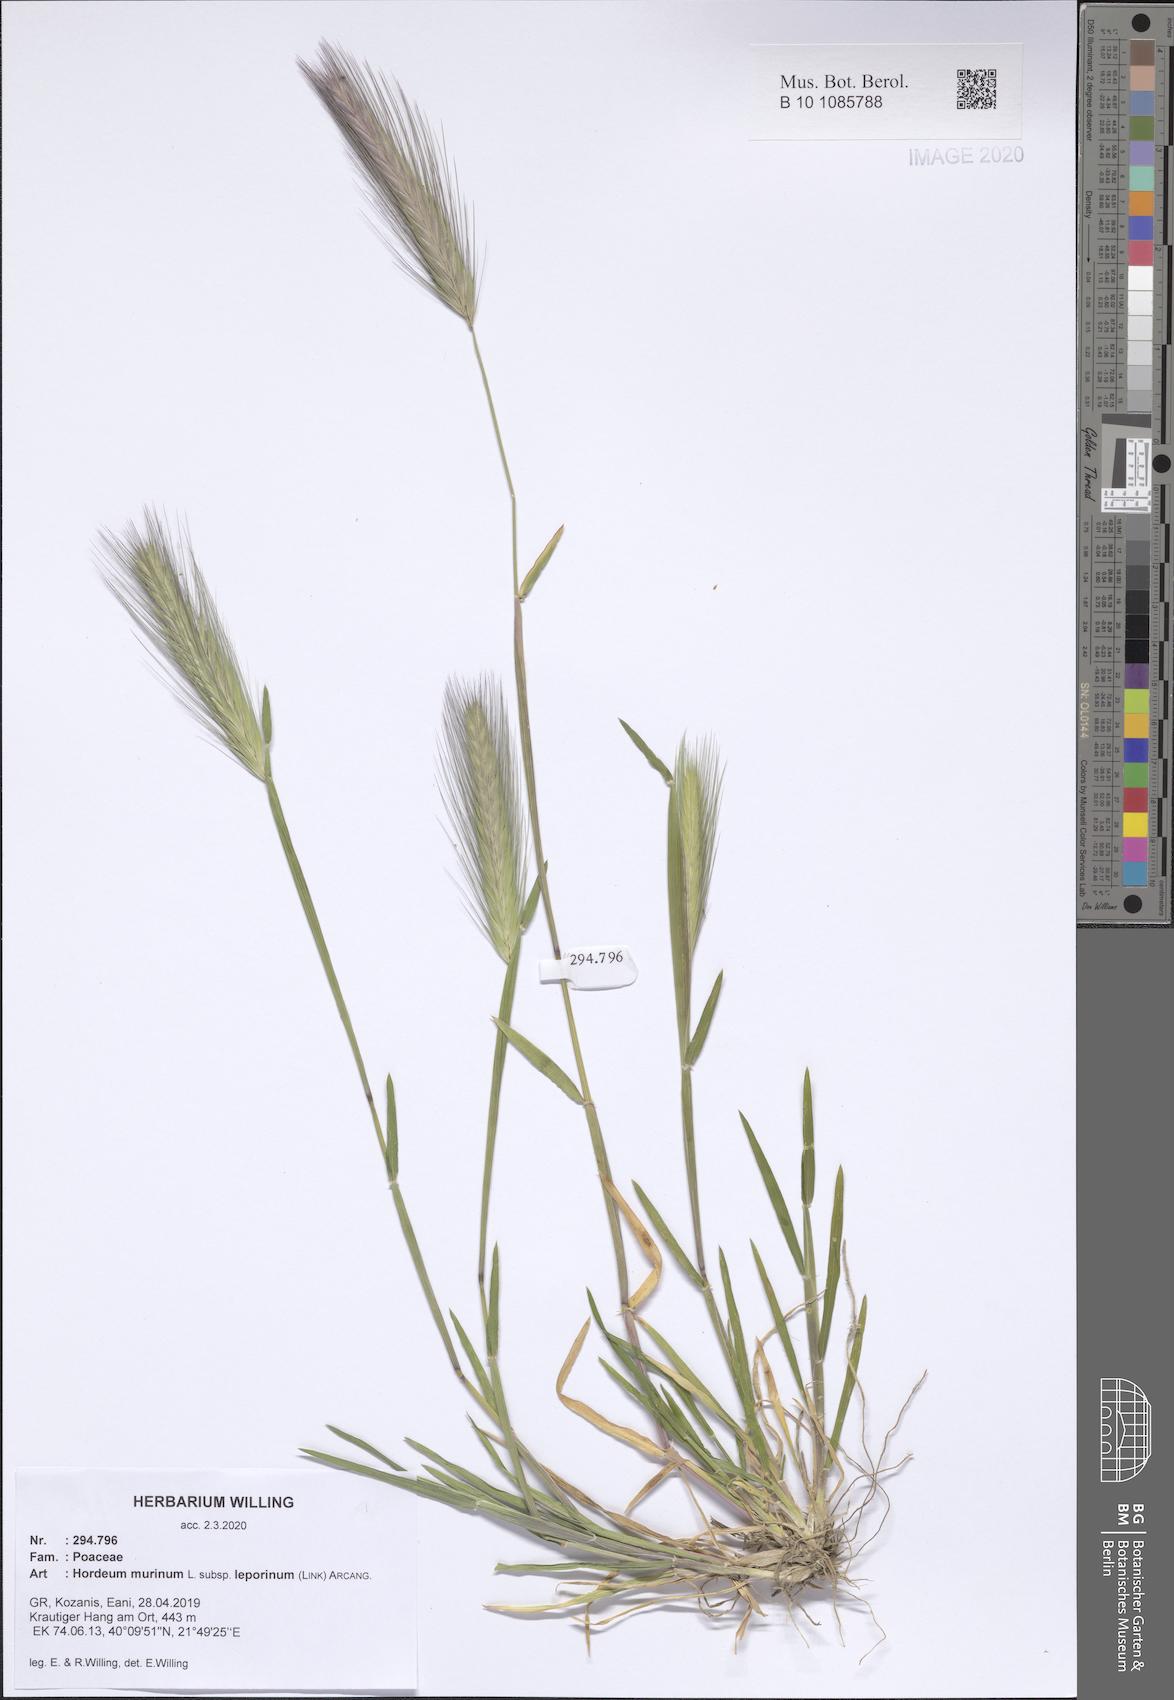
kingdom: Plantae
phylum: Tracheophyta
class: Liliopsida
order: Poales
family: Poaceae
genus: Hordeum
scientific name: Hordeum murinum
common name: Wall barley
